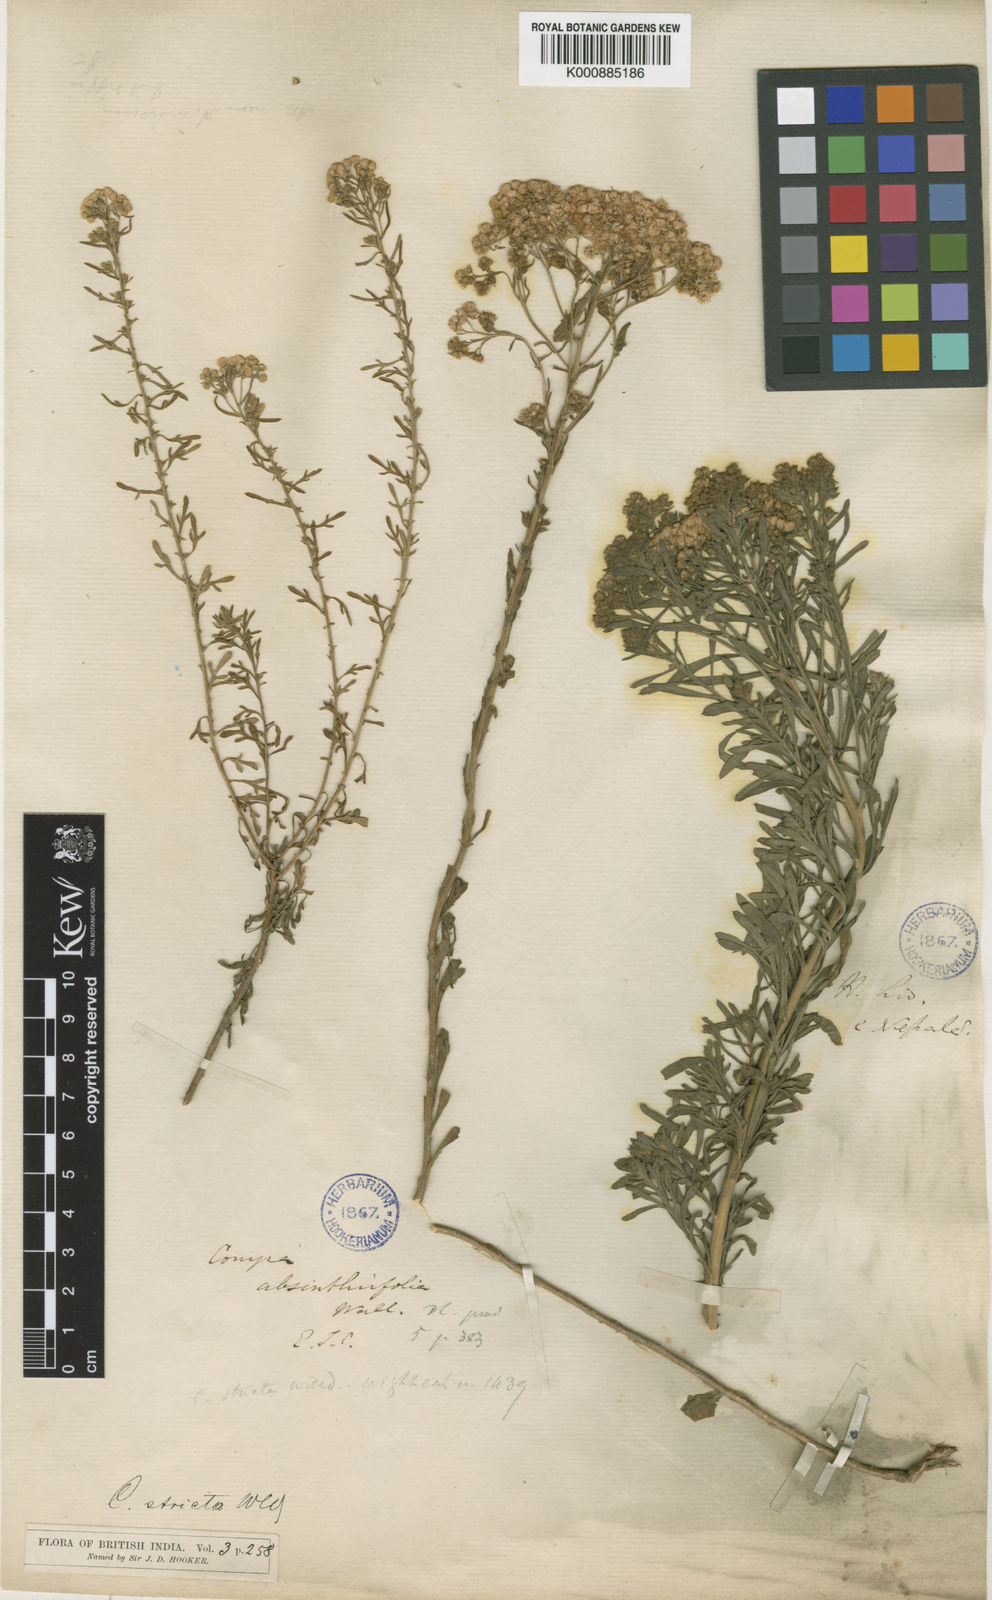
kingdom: Plantae
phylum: Tracheophyta
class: Magnoliopsida
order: Asterales
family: Asteraceae
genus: Nidorella
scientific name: Nidorella triloba
